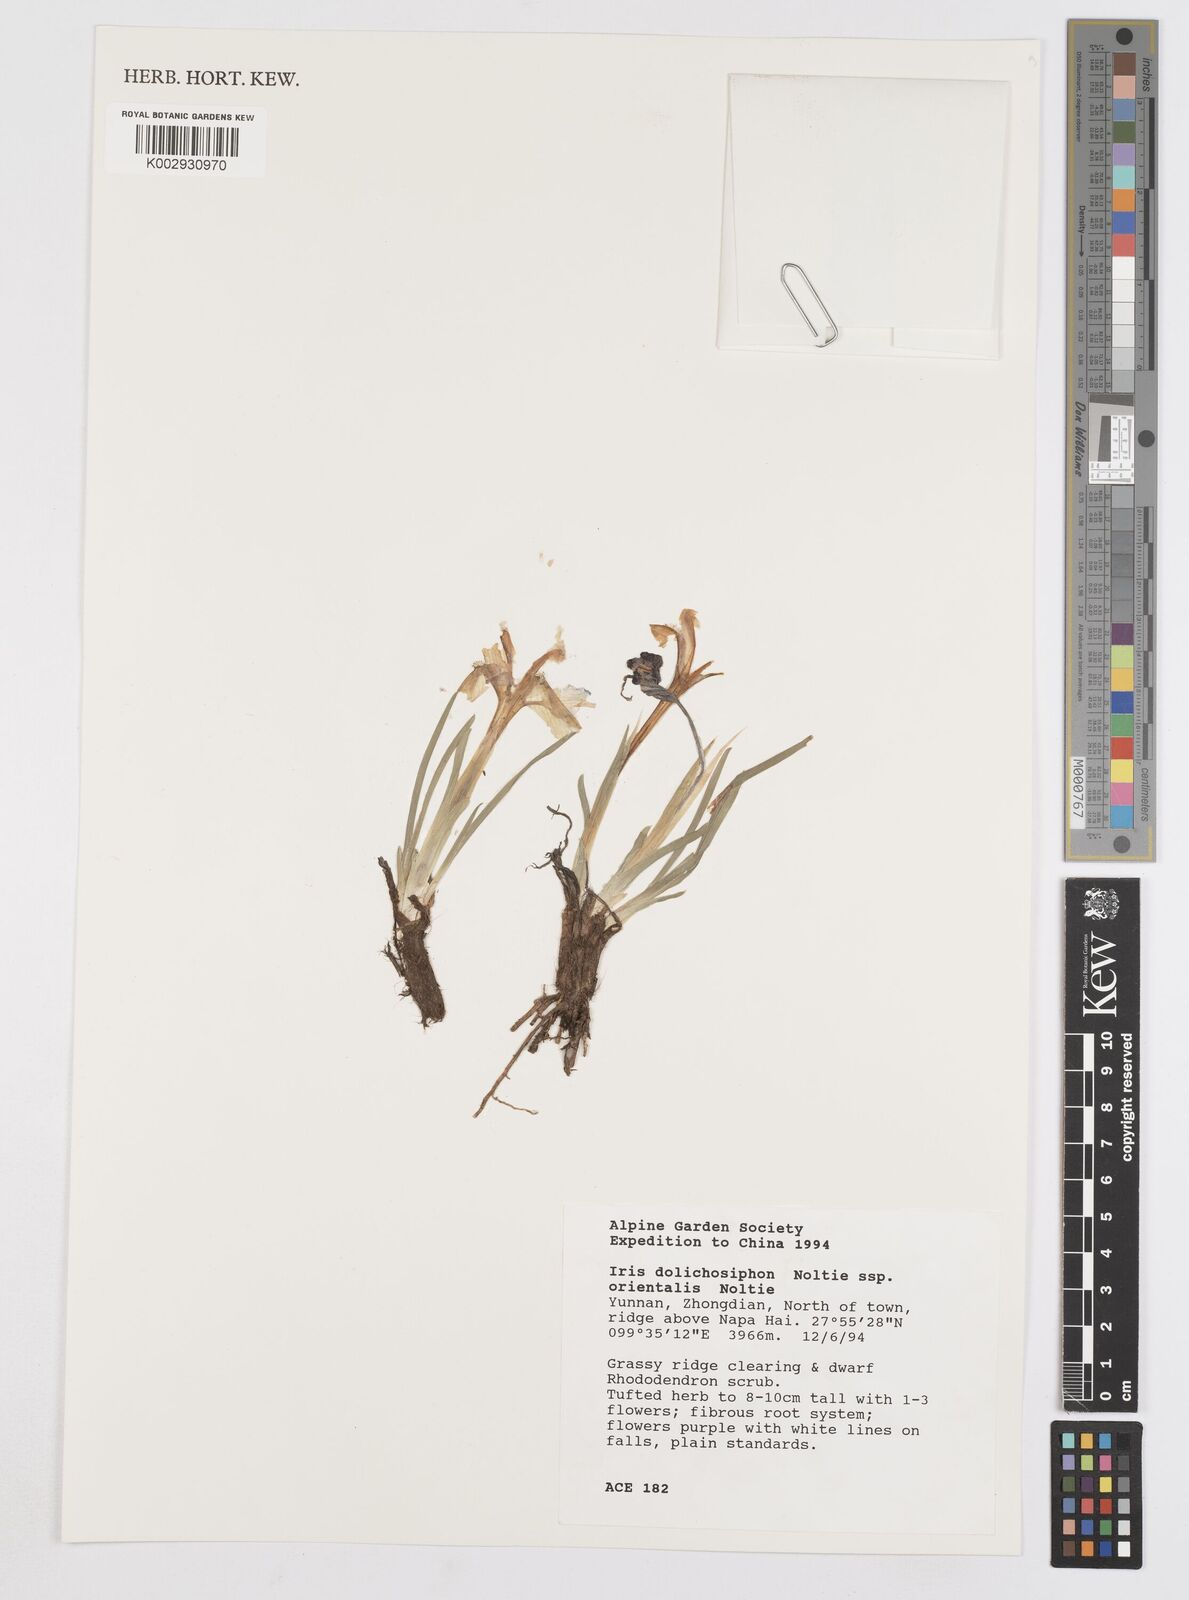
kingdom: Plantae
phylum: Tracheophyta
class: Liliopsida
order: Asparagales
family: Iridaceae
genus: Iris
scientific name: Iris dolichosiphon
